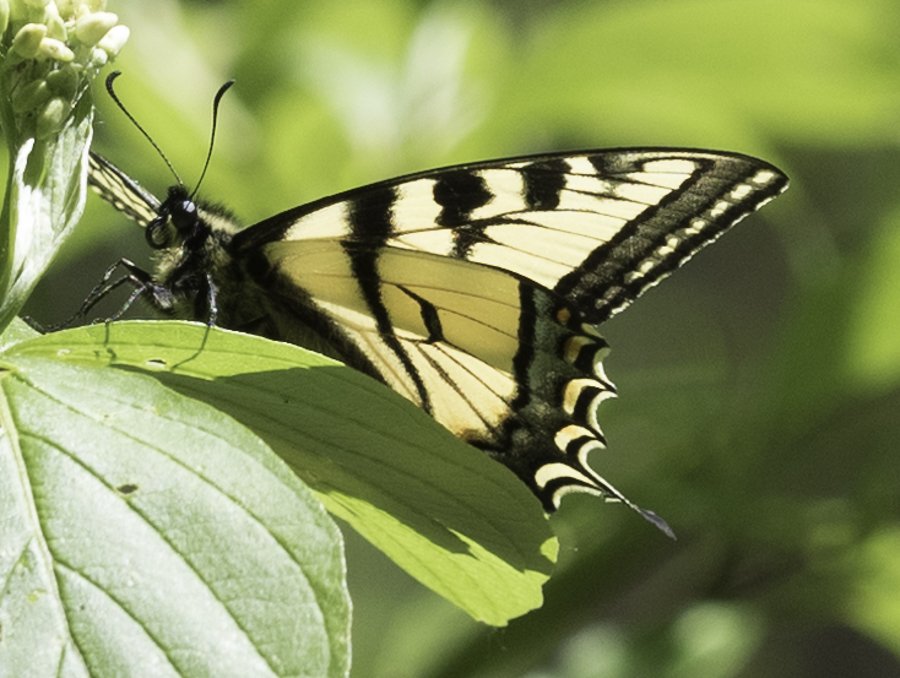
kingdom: Animalia
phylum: Arthropoda
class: Insecta
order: Lepidoptera
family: Papilionidae
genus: Pterourus
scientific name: Pterourus canadensis
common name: Canadian Tiger Swallowtail
